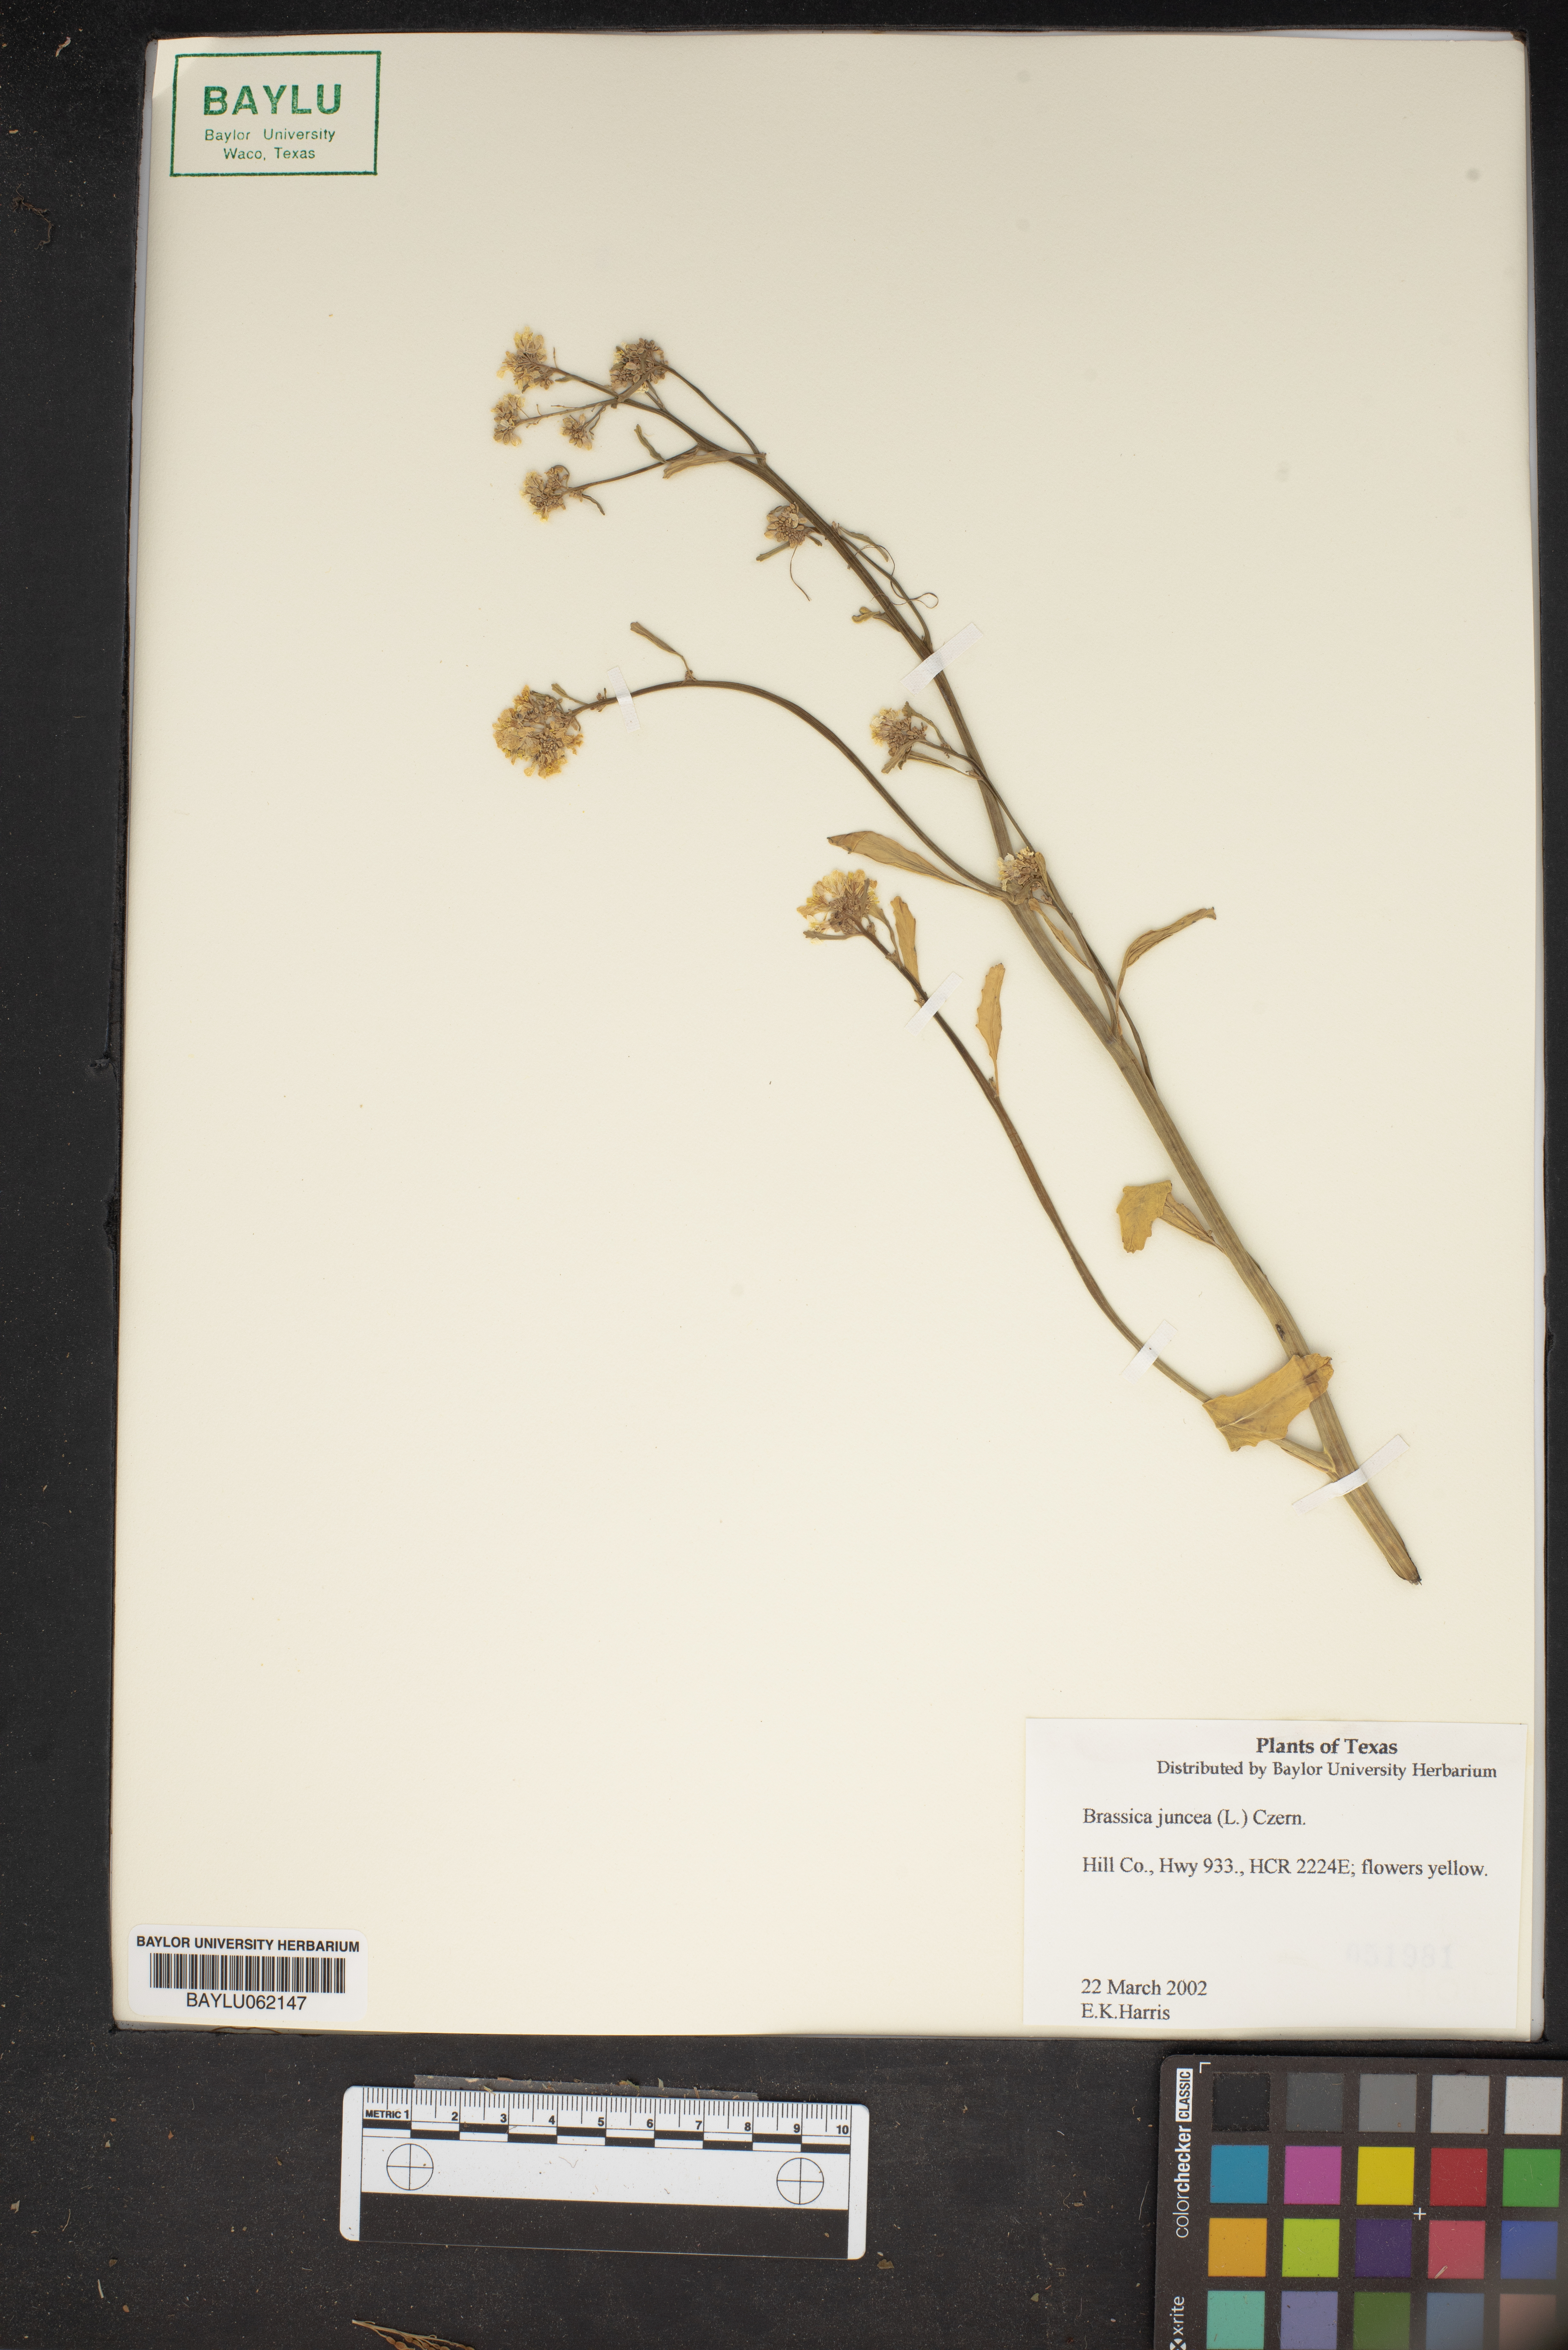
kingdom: Plantae
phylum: Tracheophyta
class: Magnoliopsida
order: Brassicales
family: Brassicaceae
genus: Brassica
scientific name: Brassica juncea
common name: Brown mustard
